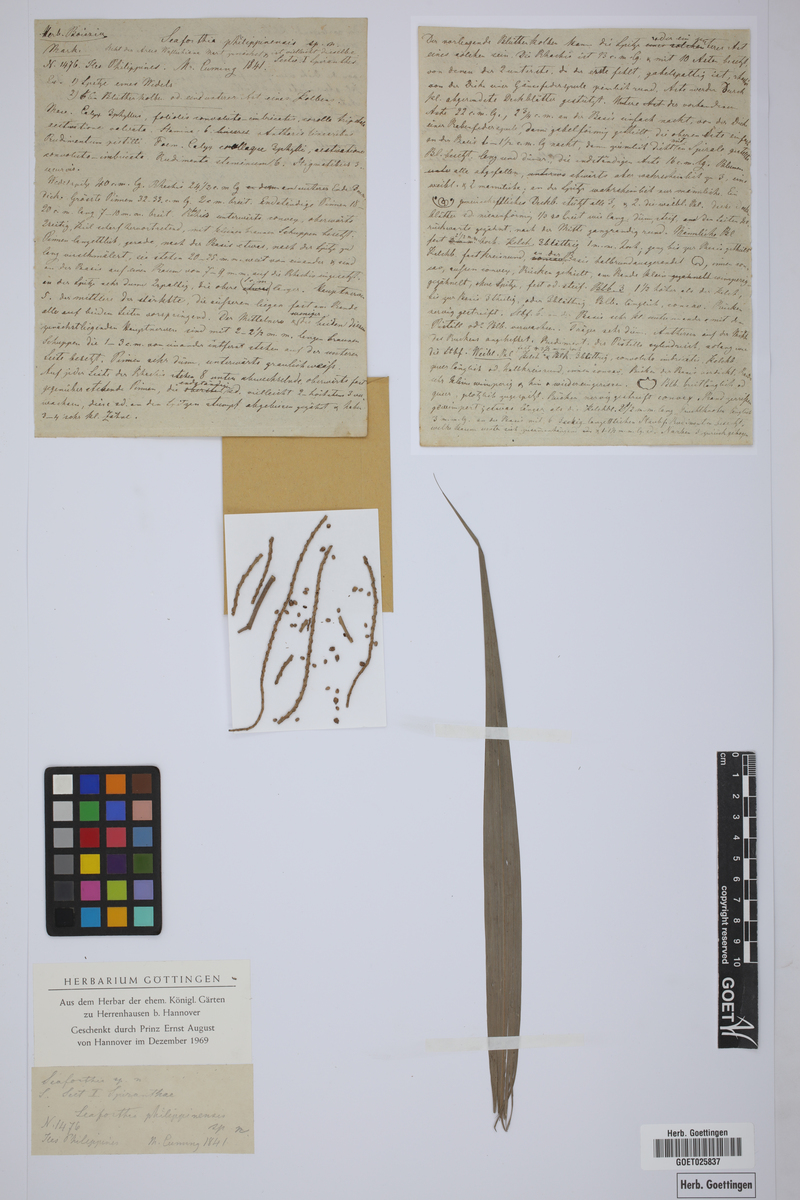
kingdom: Plantae
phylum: Tracheophyta
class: Liliopsida
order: Arecales
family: Arecaceae
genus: Heterospathe
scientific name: Heterospathe philippinensis
